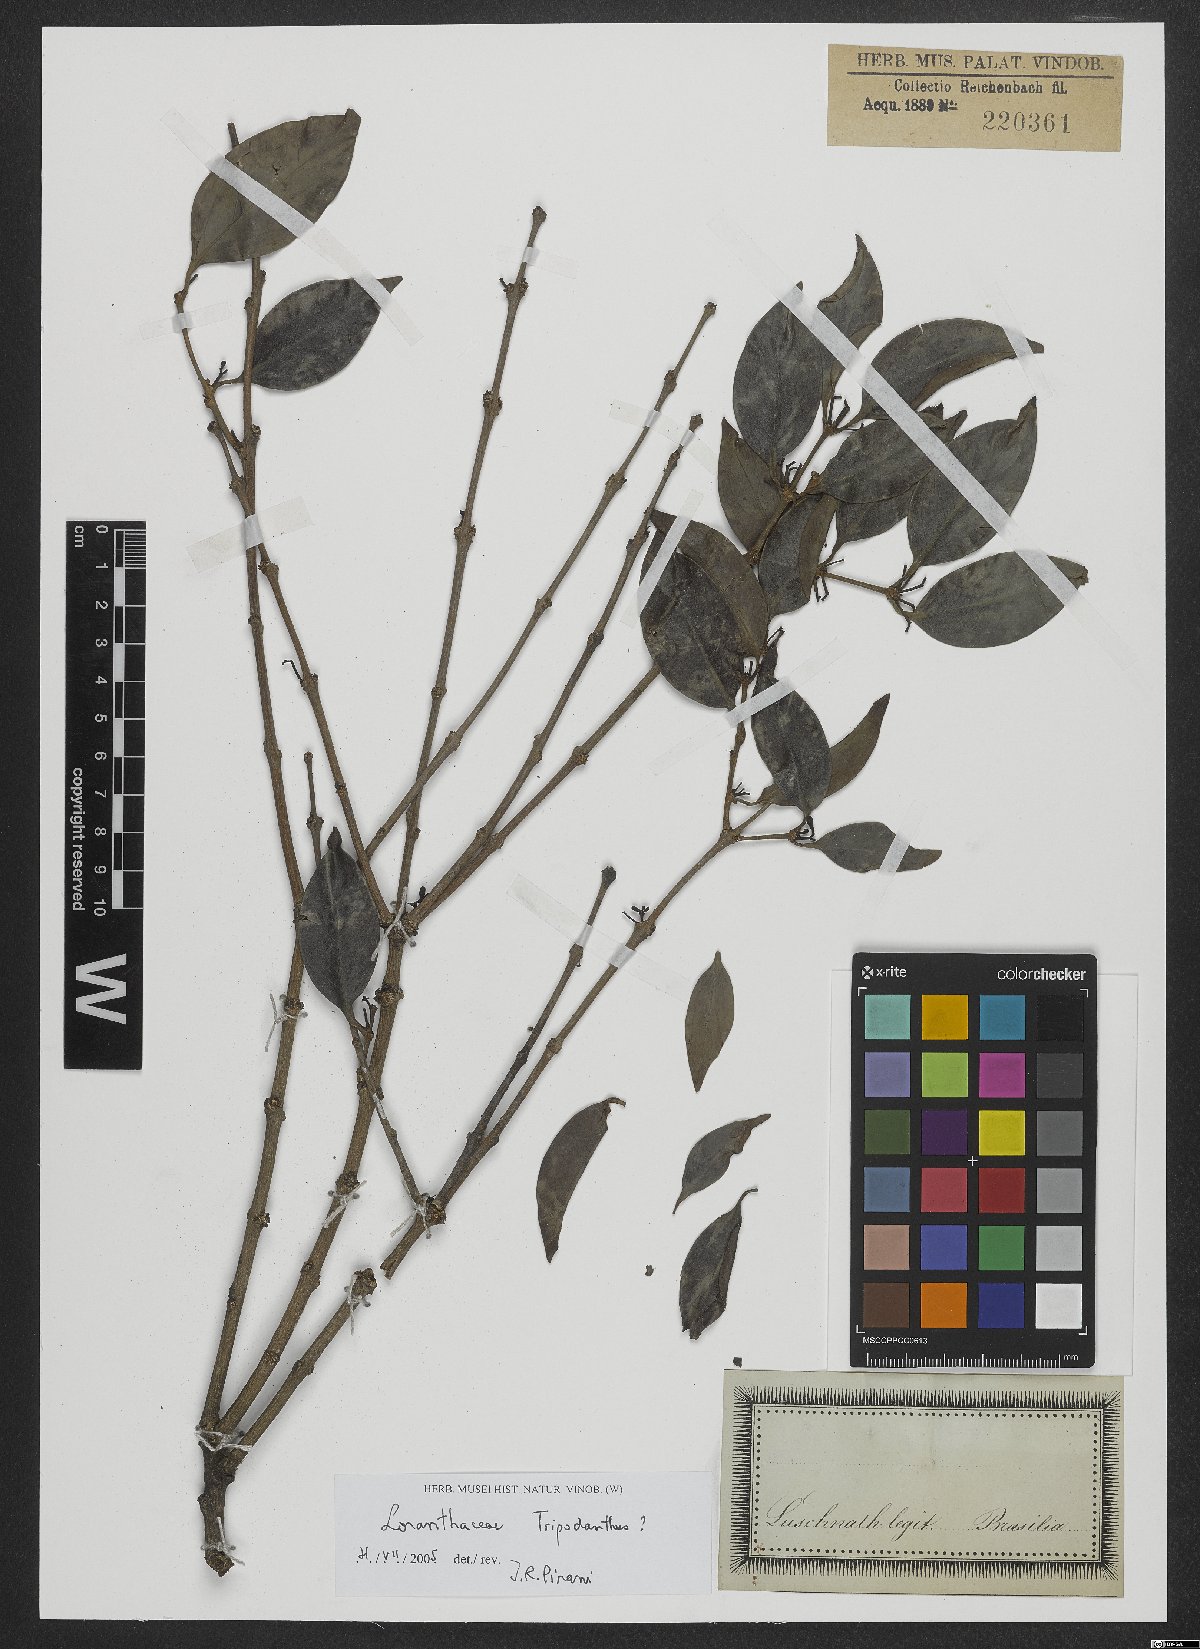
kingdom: Plantae
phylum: Tracheophyta
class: Magnoliopsida
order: Santalales
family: Loranthaceae
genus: Tripodanthus
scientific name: Tripodanthus
